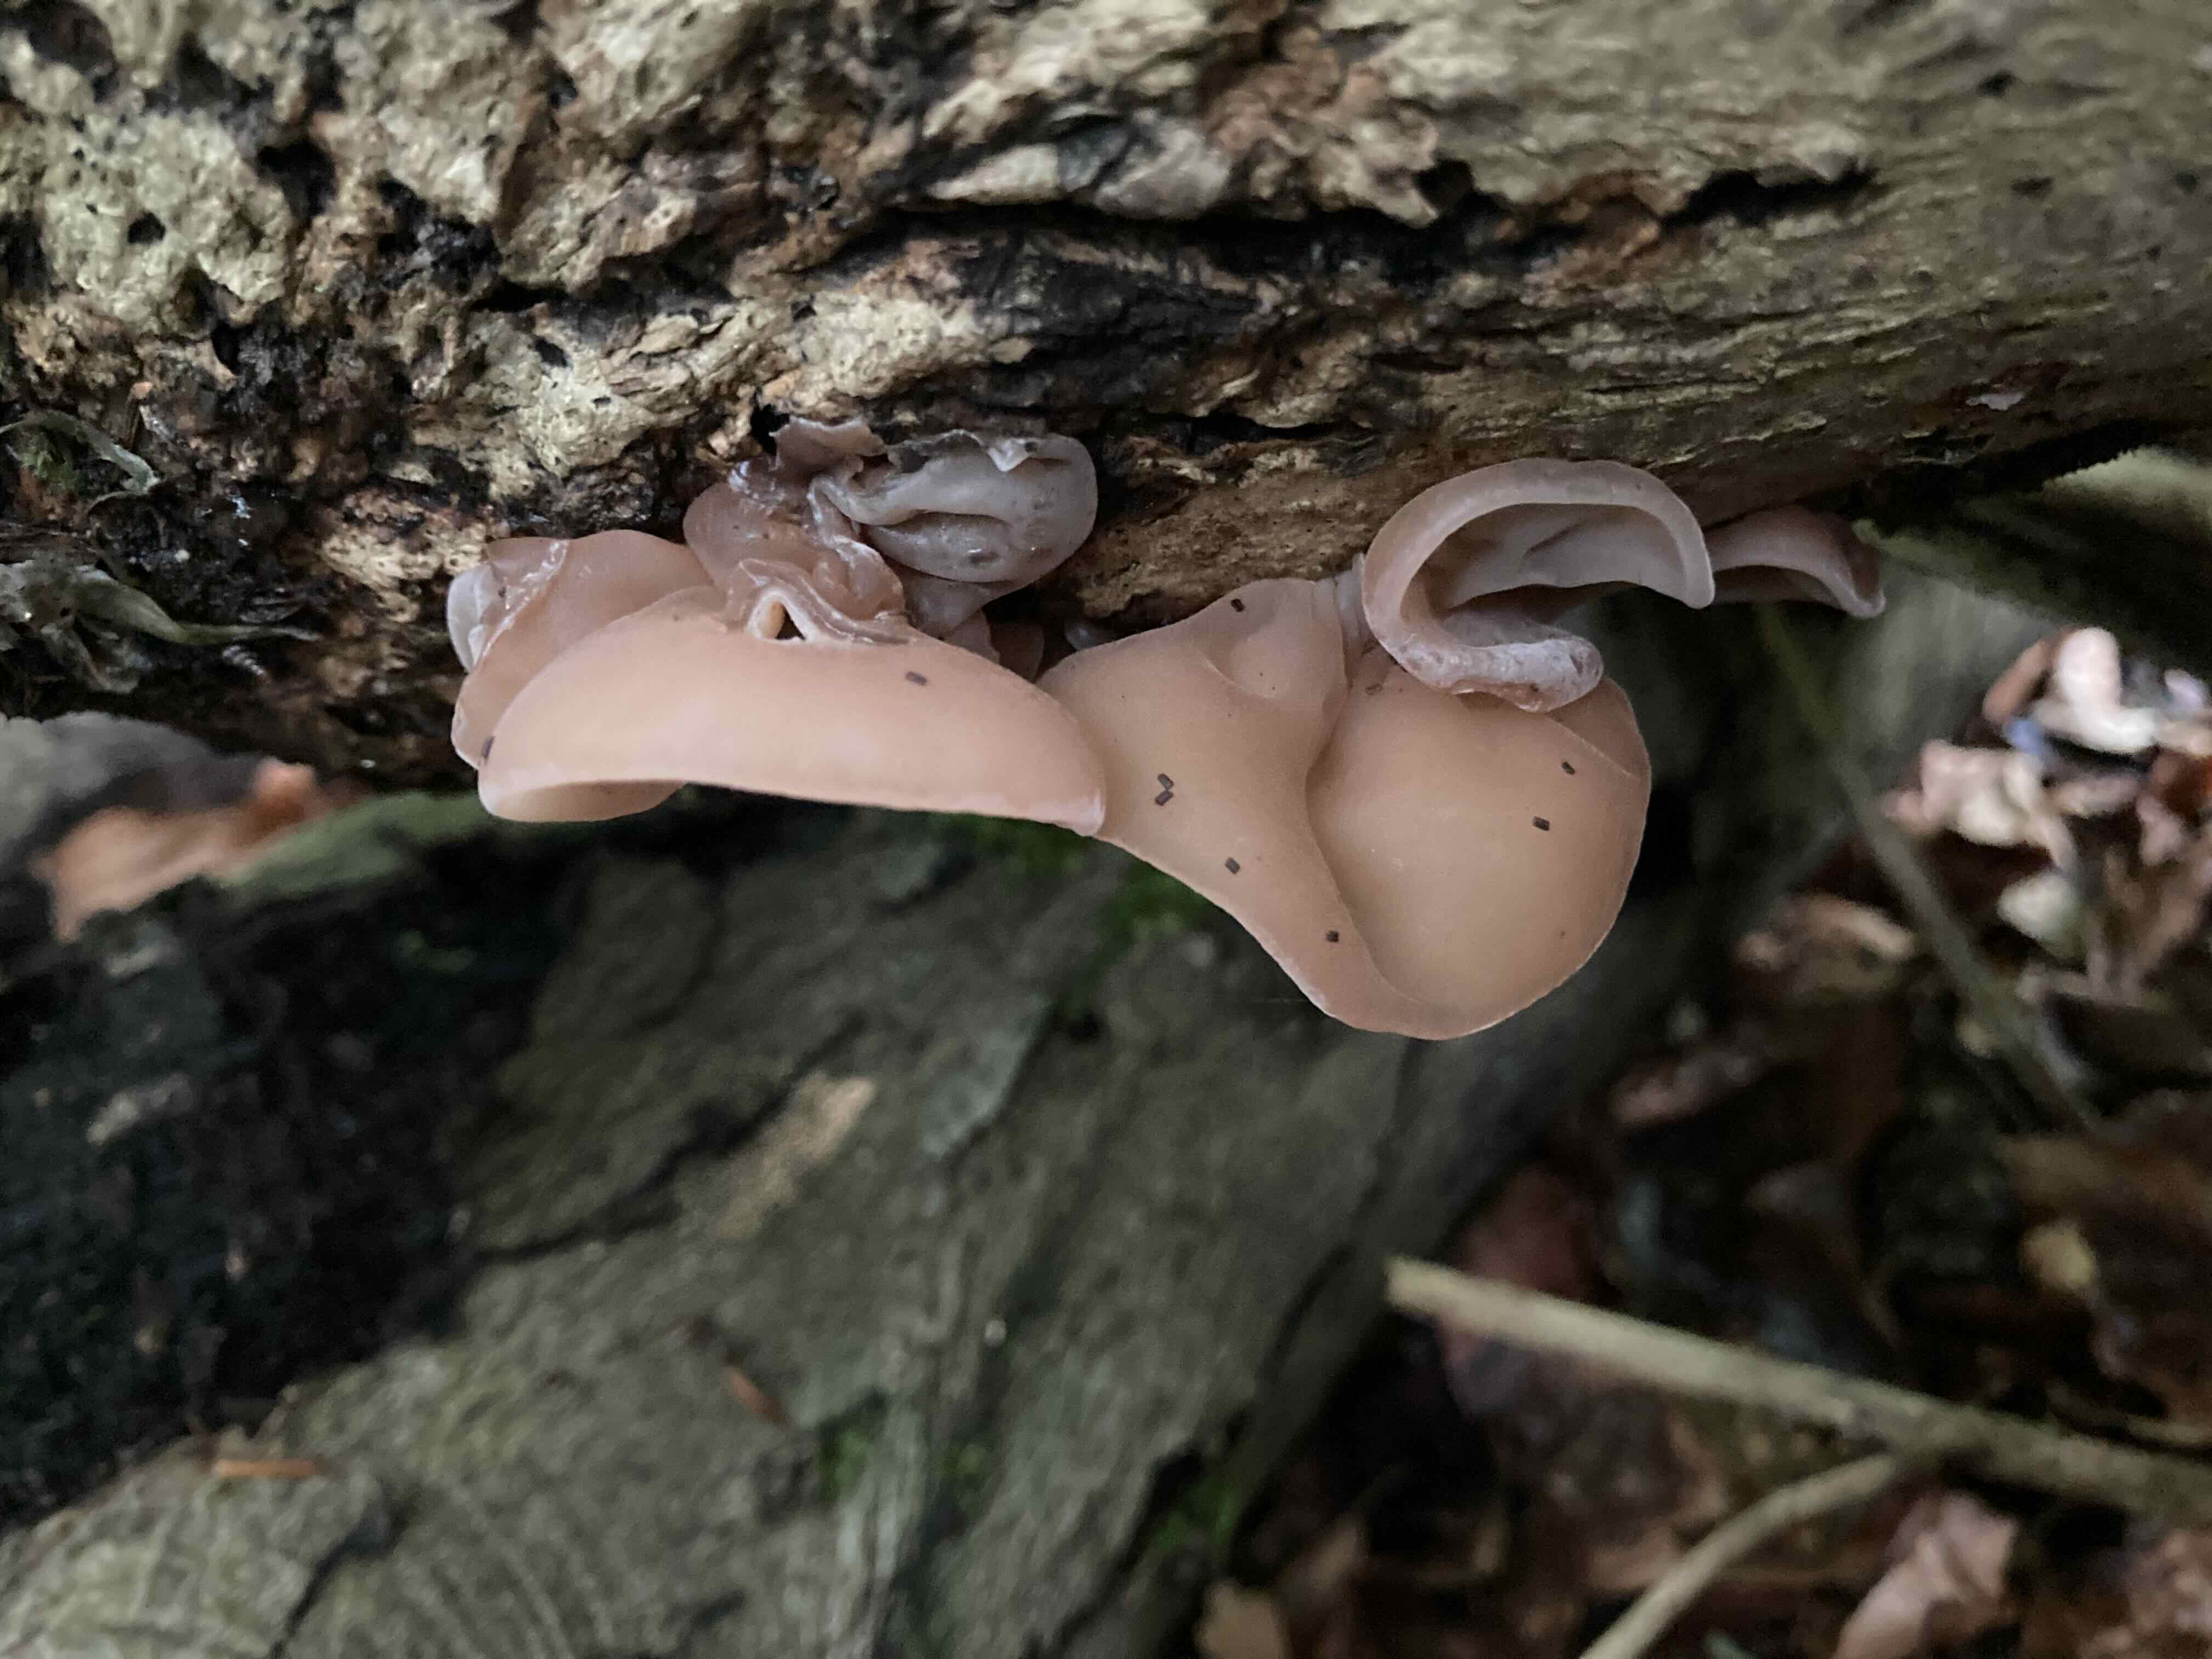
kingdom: Fungi
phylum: Basidiomycota
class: Agaricomycetes
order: Auriculariales
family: Auriculariaceae
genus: Auricularia
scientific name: Auricularia auricula-judae
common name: almindelig judasøre
